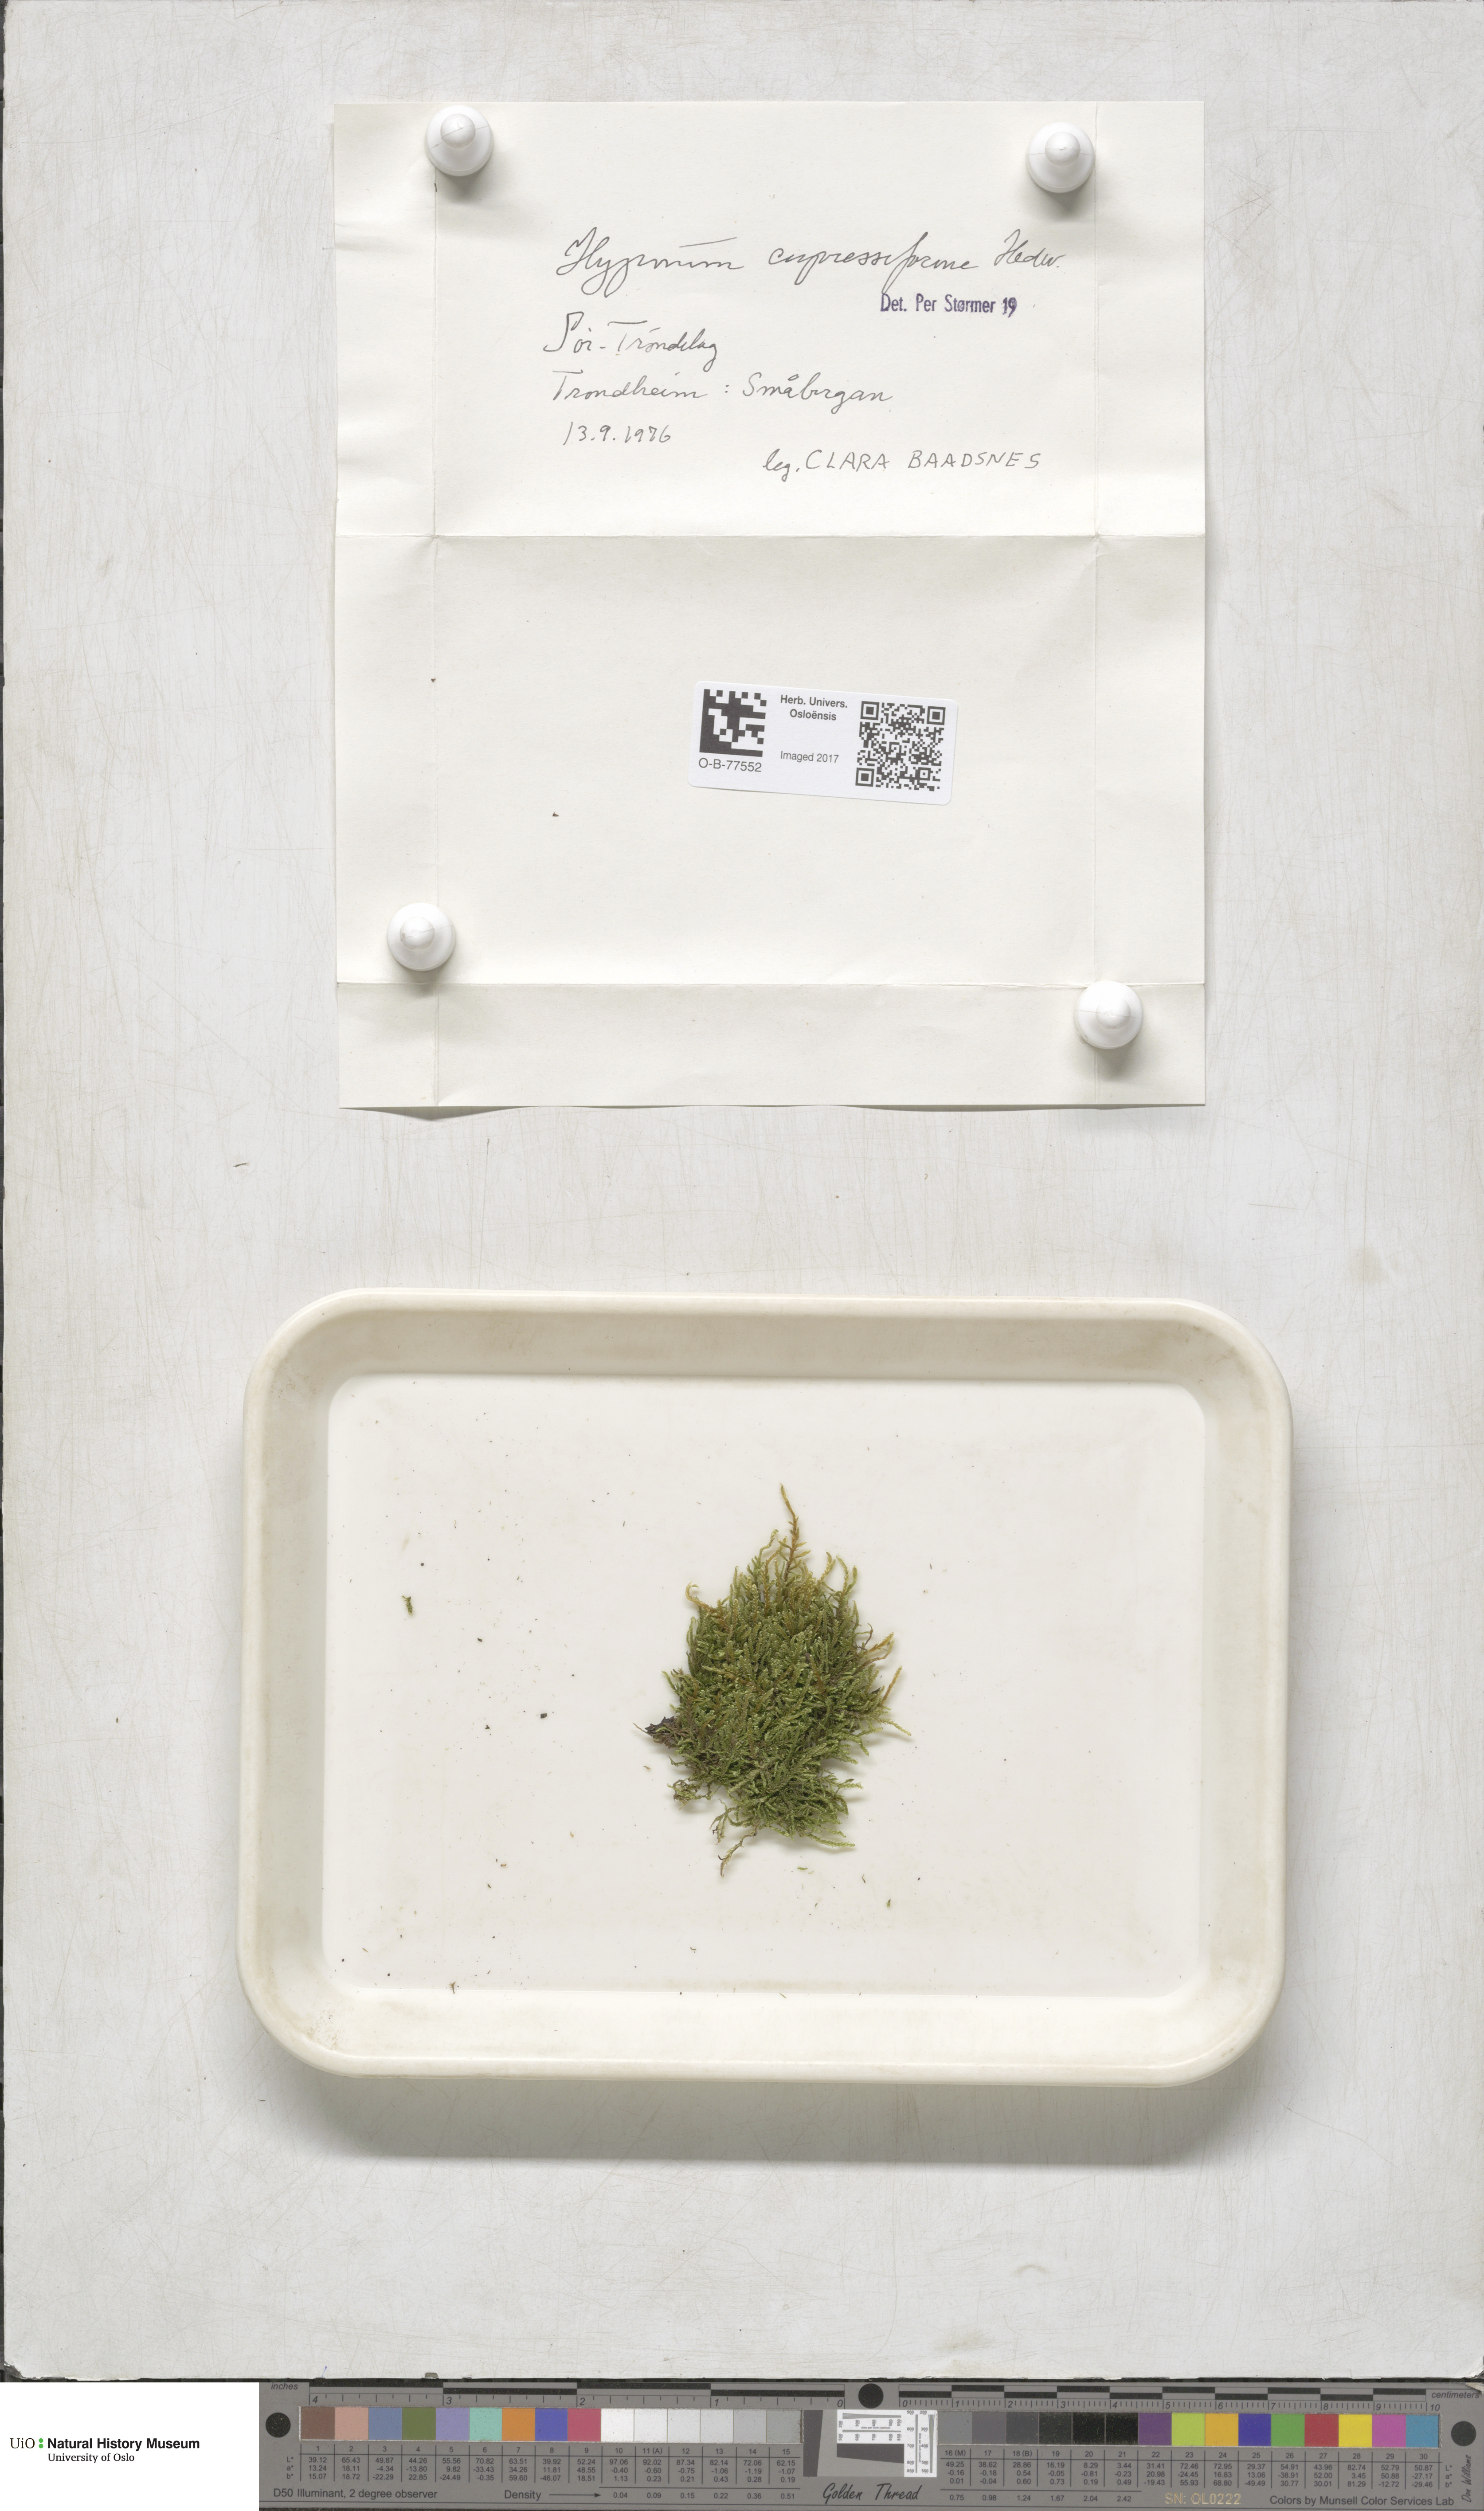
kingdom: Plantae
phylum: Bryophyta
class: Bryopsida
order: Hypnales
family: Hypnaceae
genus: Hypnum
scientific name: Hypnum cupressiforme
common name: Cypress-leaved plait-moss
